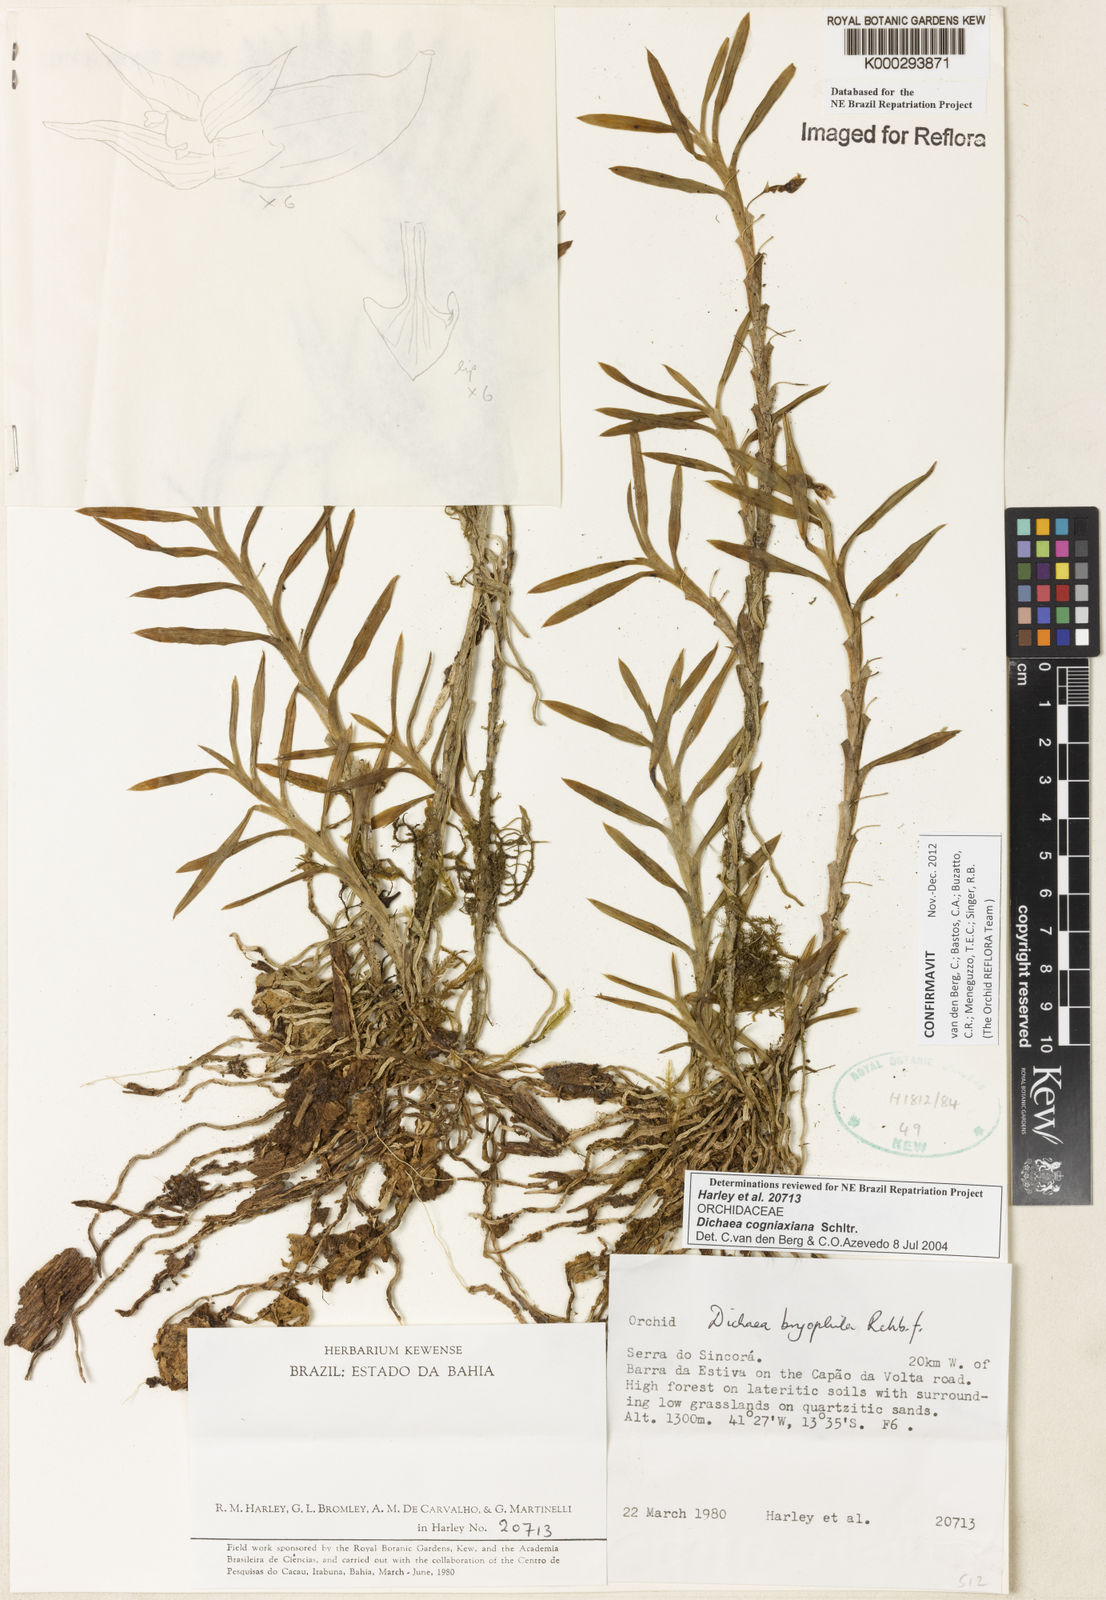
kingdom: Plantae
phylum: Tracheophyta
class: Liliopsida
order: Asparagales
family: Orchidaceae
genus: Dichaea
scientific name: Dichaea cogniauxiana
